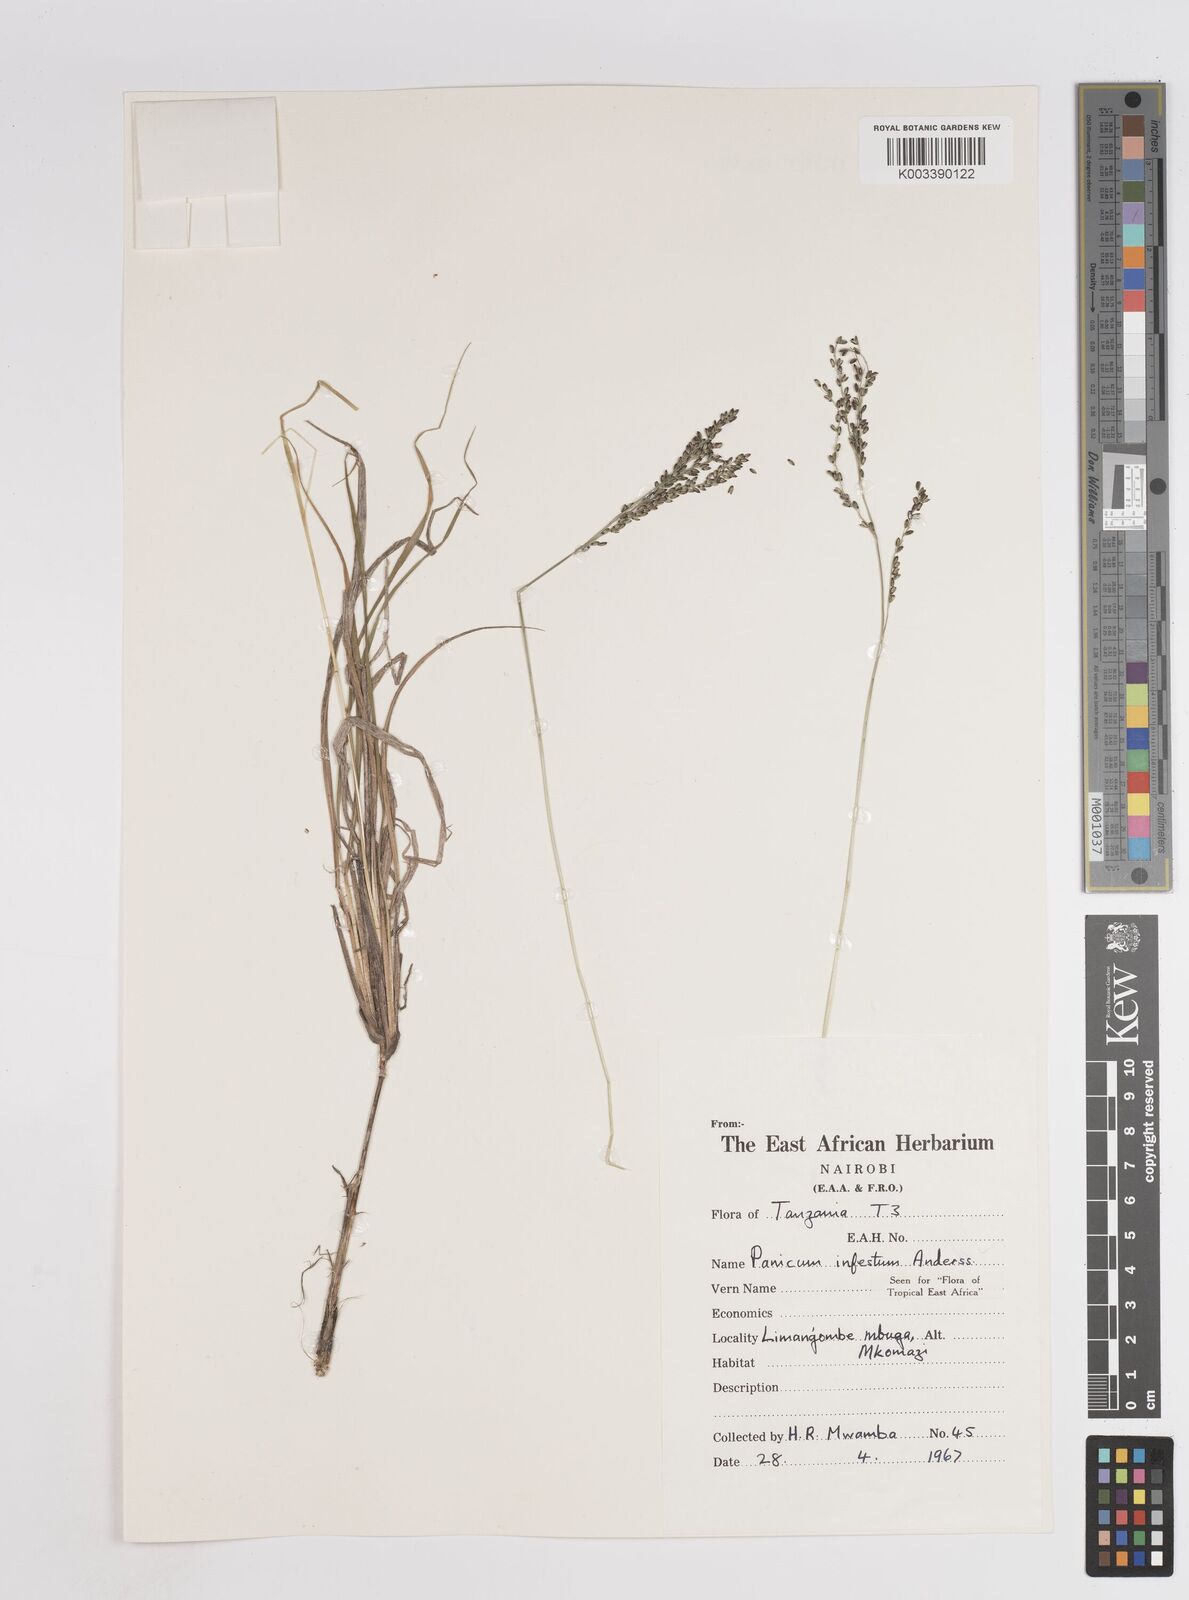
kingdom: Plantae
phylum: Tracheophyta
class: Liliopsida
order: Poales
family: Poaceae
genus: Megathyrsus
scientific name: Megathyrsus infestus
